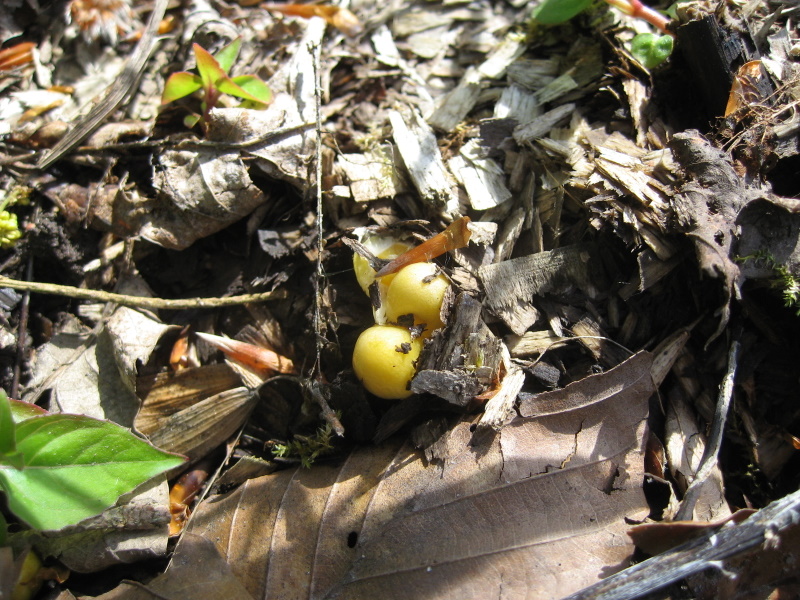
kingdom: Fungi
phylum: Basidiomycota
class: Agaricomycetes
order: Agaricales
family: Bolbitiaceae
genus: Bolbitius
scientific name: Bolbitius titubans
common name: almindelig gulhat
